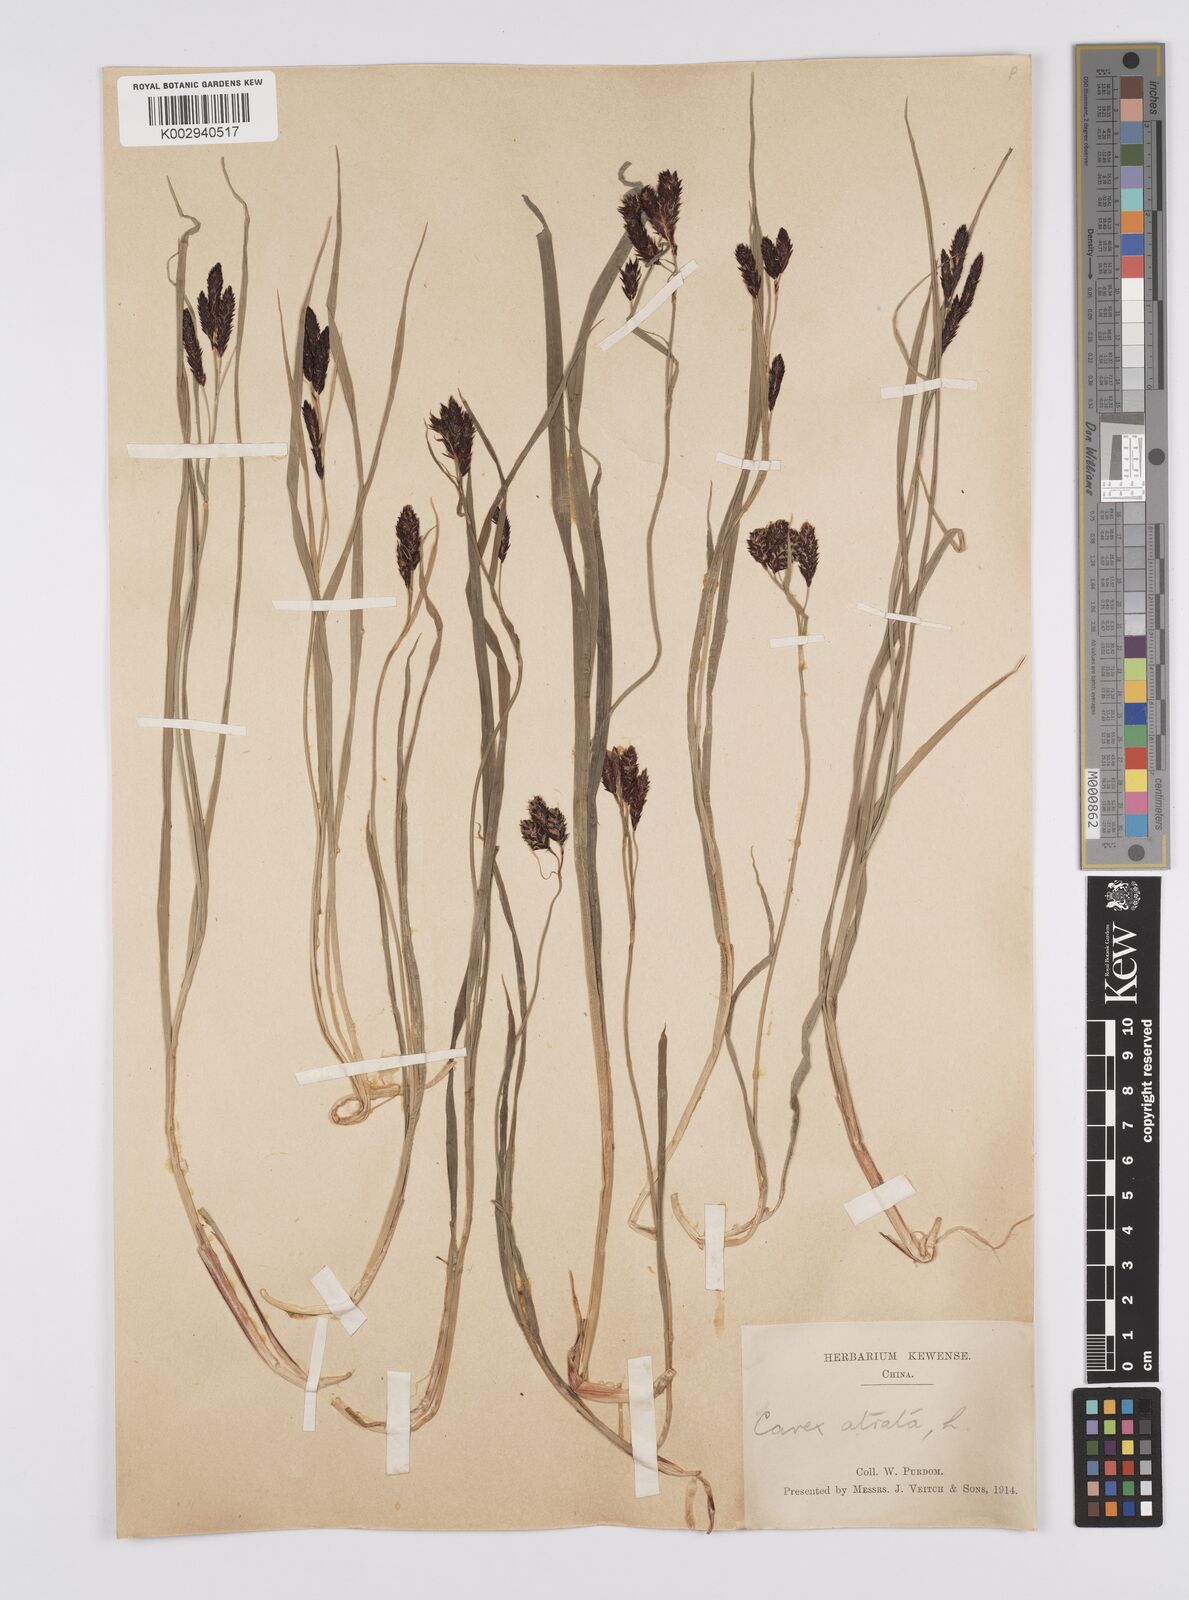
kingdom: Plantae
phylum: Tracheophyta
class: Liliopsida
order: Poales
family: Cyperaceae
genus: Carex
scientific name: Carex atrata
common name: Black alpine sedge
